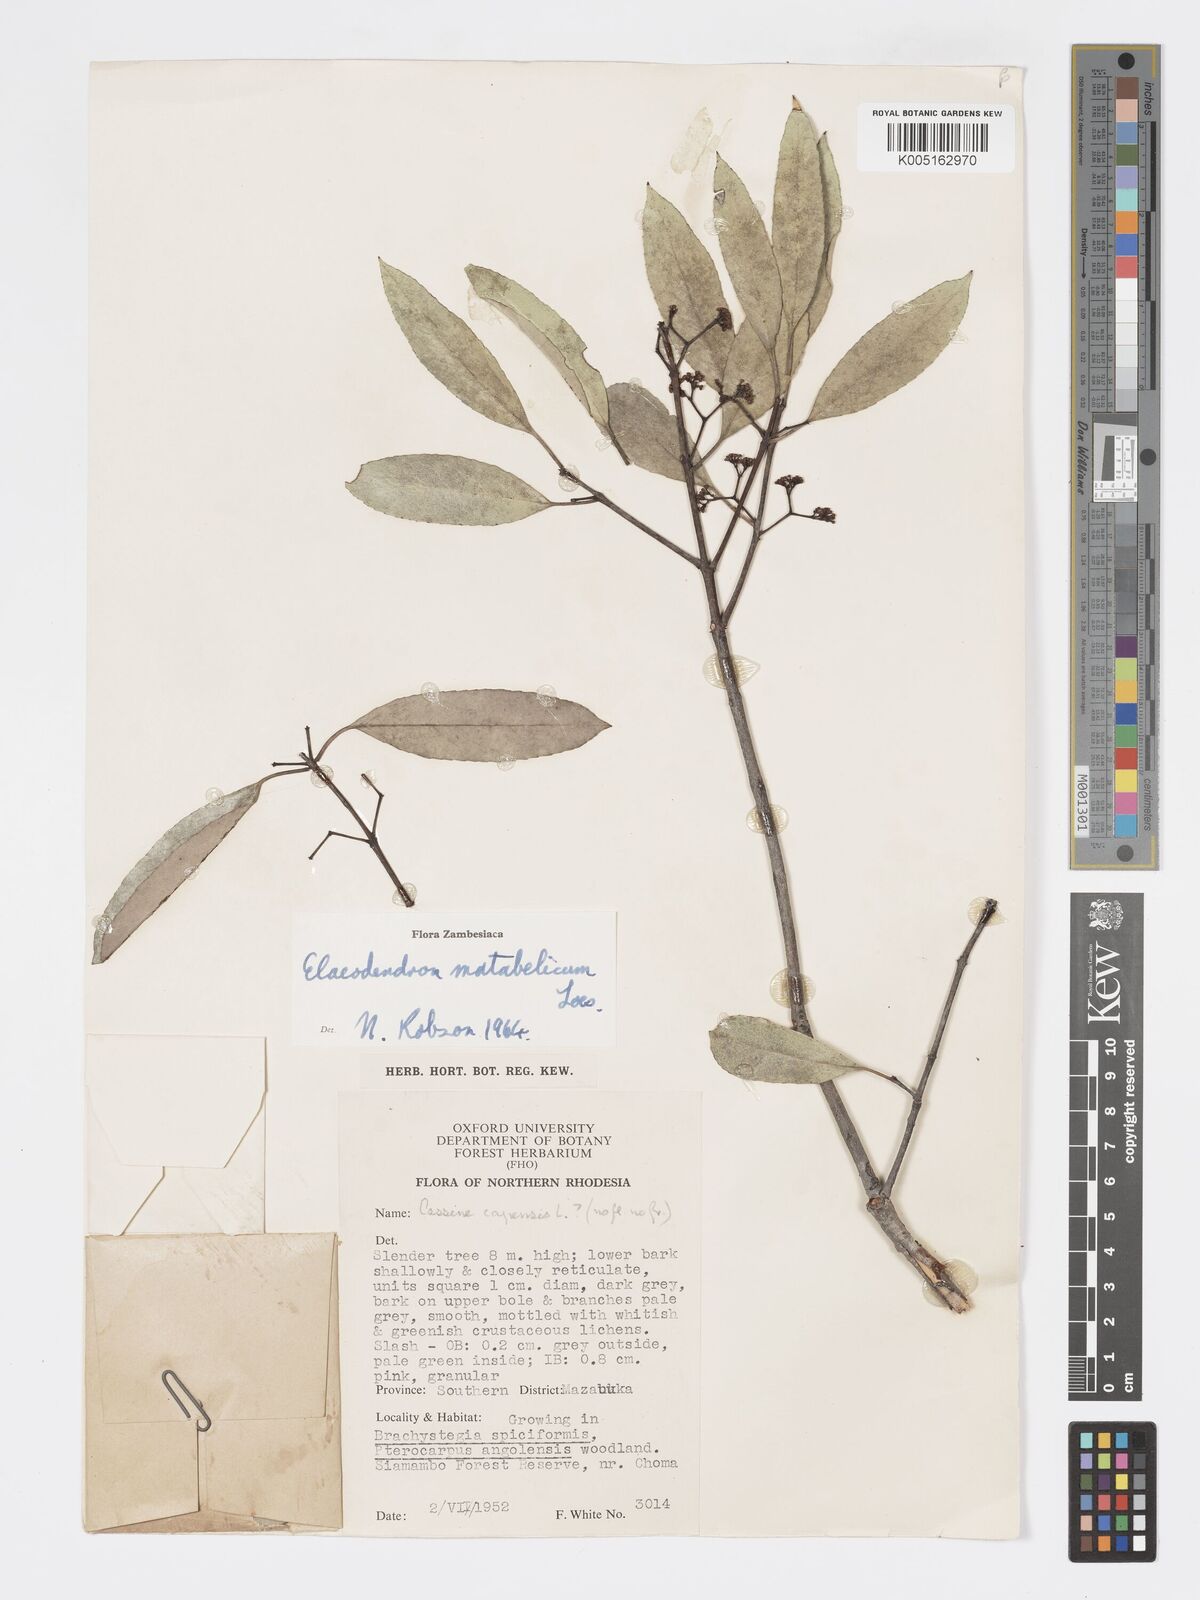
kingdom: Plantae
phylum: Tracheophyta
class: Magnoliopsida
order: Celastrales
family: Celastraceae
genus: Elaeodendron
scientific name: Elaeodendron matabelicum
